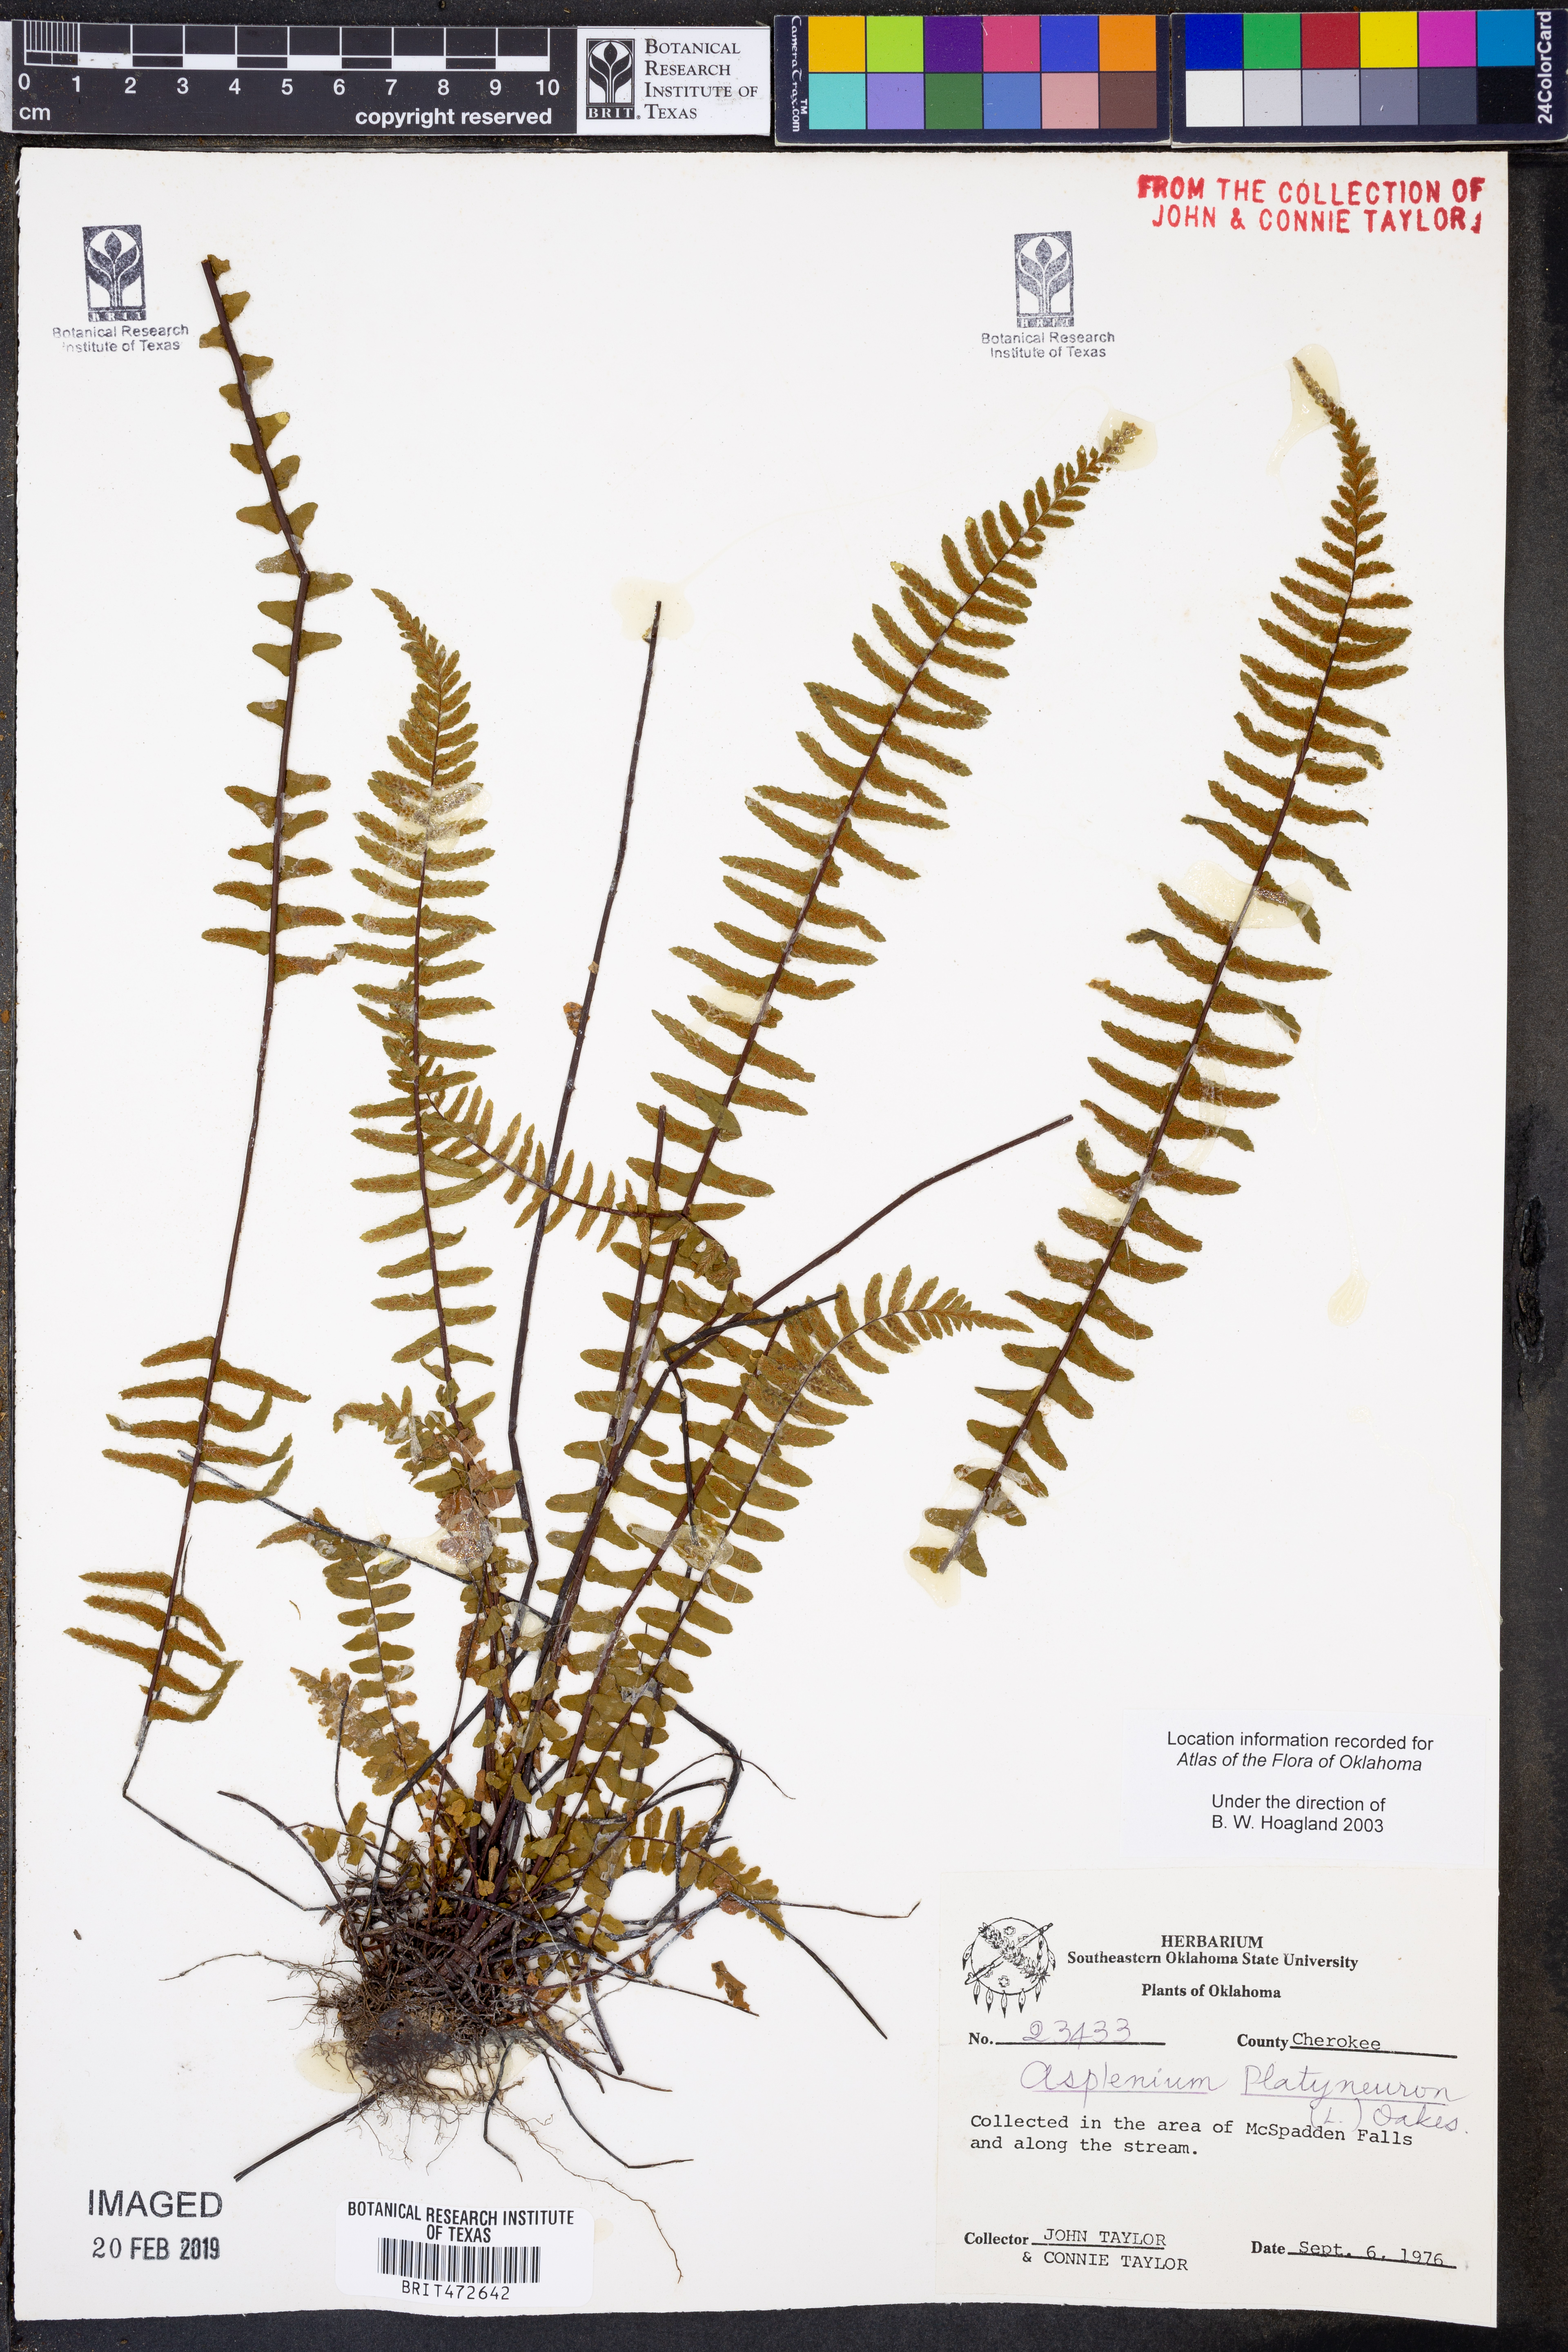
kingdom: Plantae
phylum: Tracheophyta
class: Polypodiopsida
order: Polypodiales
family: Aspleniaceae
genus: Asplenium
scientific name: Asplenium platyneuron
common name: Ebony spleenwort
